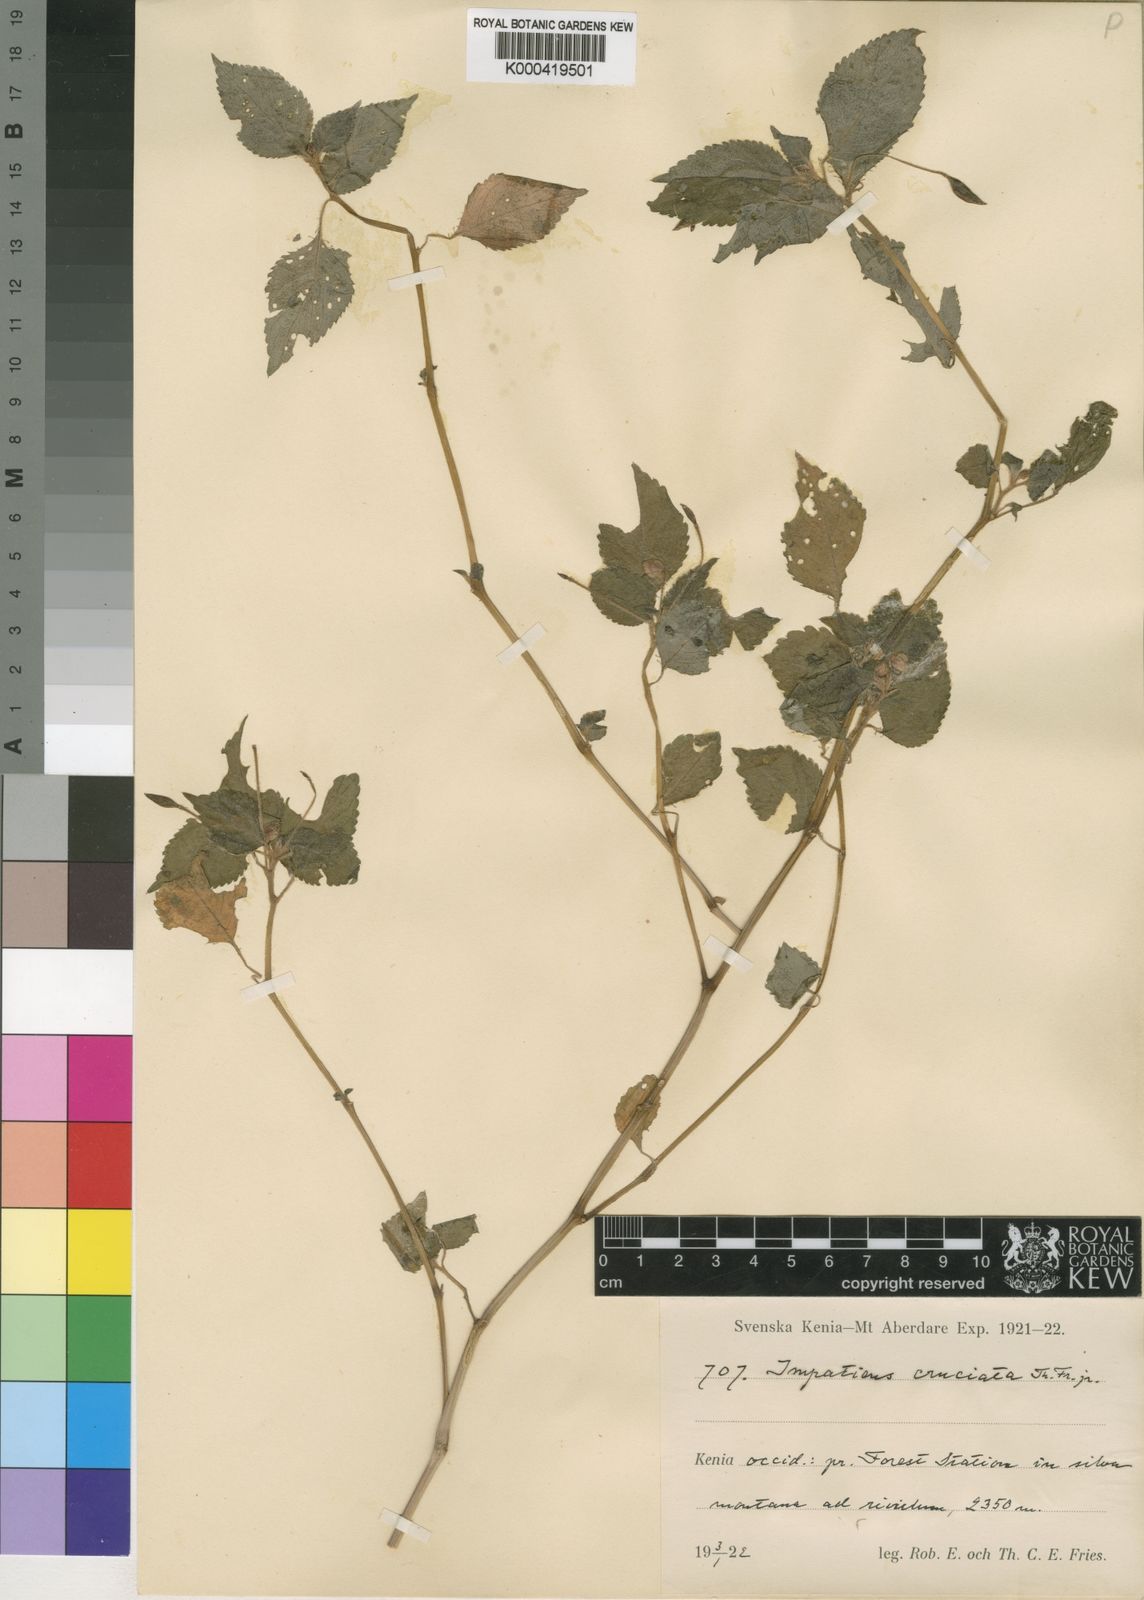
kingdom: Plantae
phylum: Tracheophyta
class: Magnoliopsida
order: Ericales
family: Balsaminaceae
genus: Impatiens
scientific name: Impatiens meruensis
